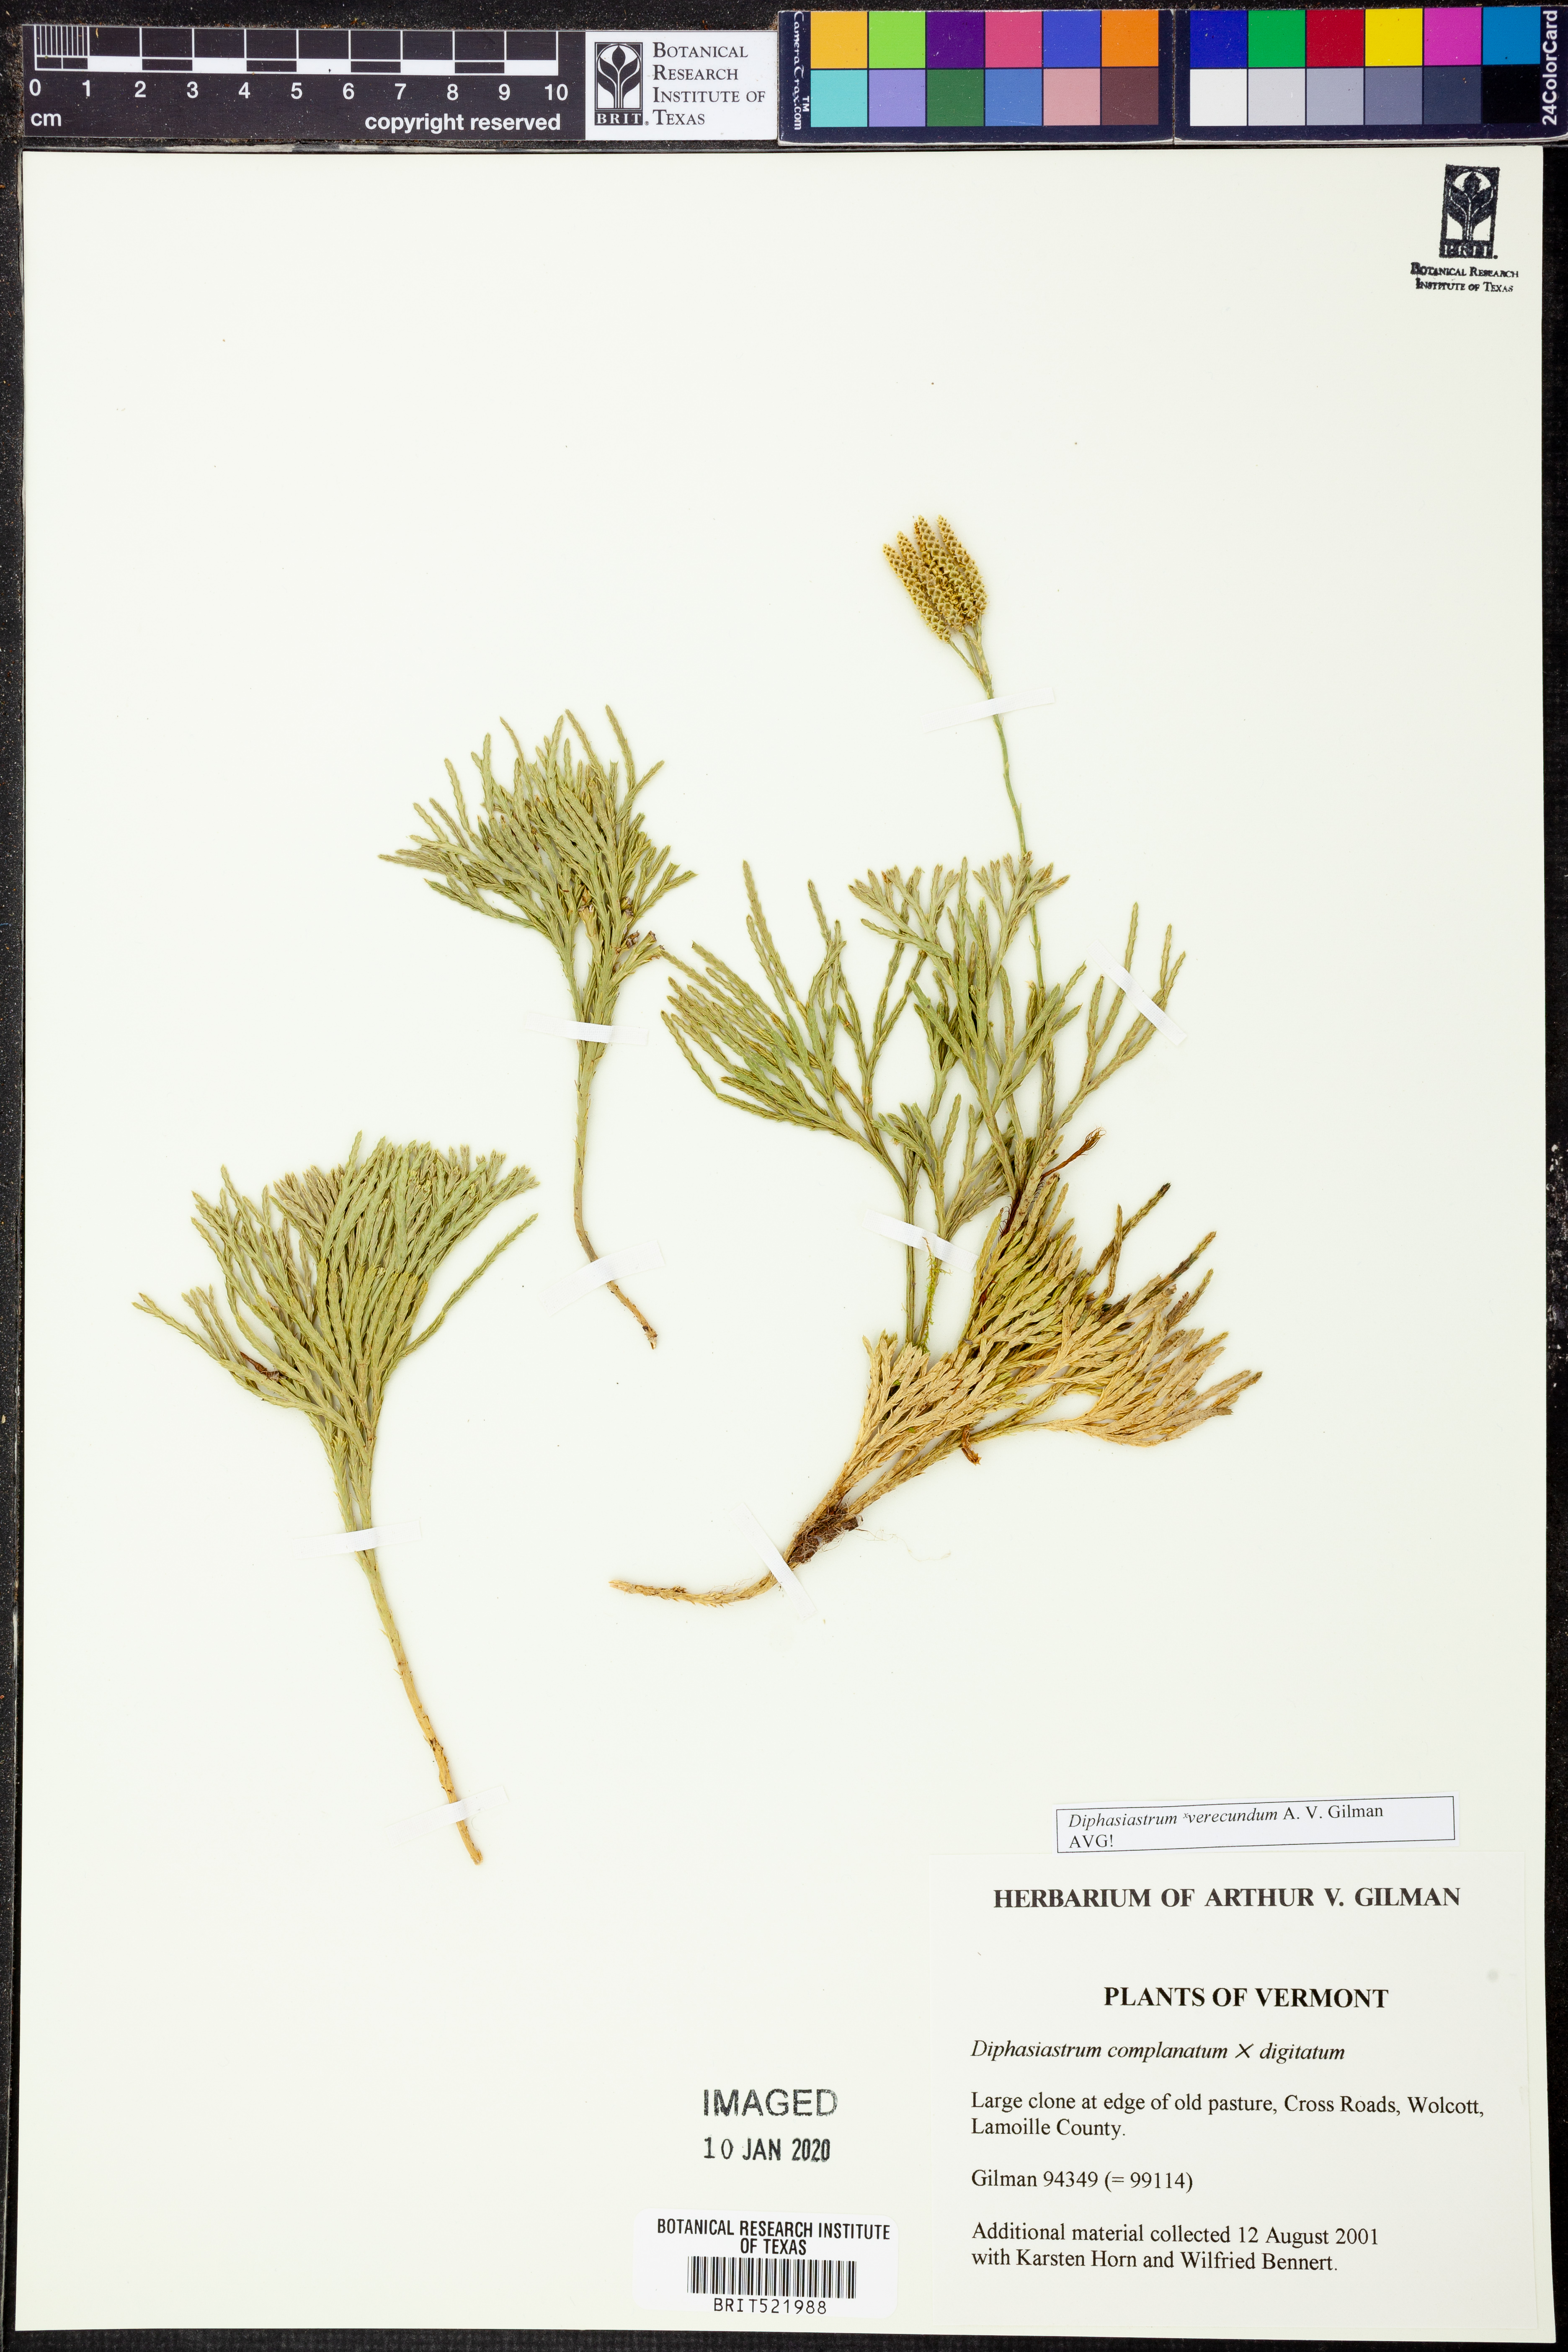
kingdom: Plantae
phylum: Tracheophyta
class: Lycopodiopsida
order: Lycopodiales
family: Lycopodiaceae
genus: Diphasiastrum
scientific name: Diphasiastrum verecundum
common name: Bashful ground-cedar
